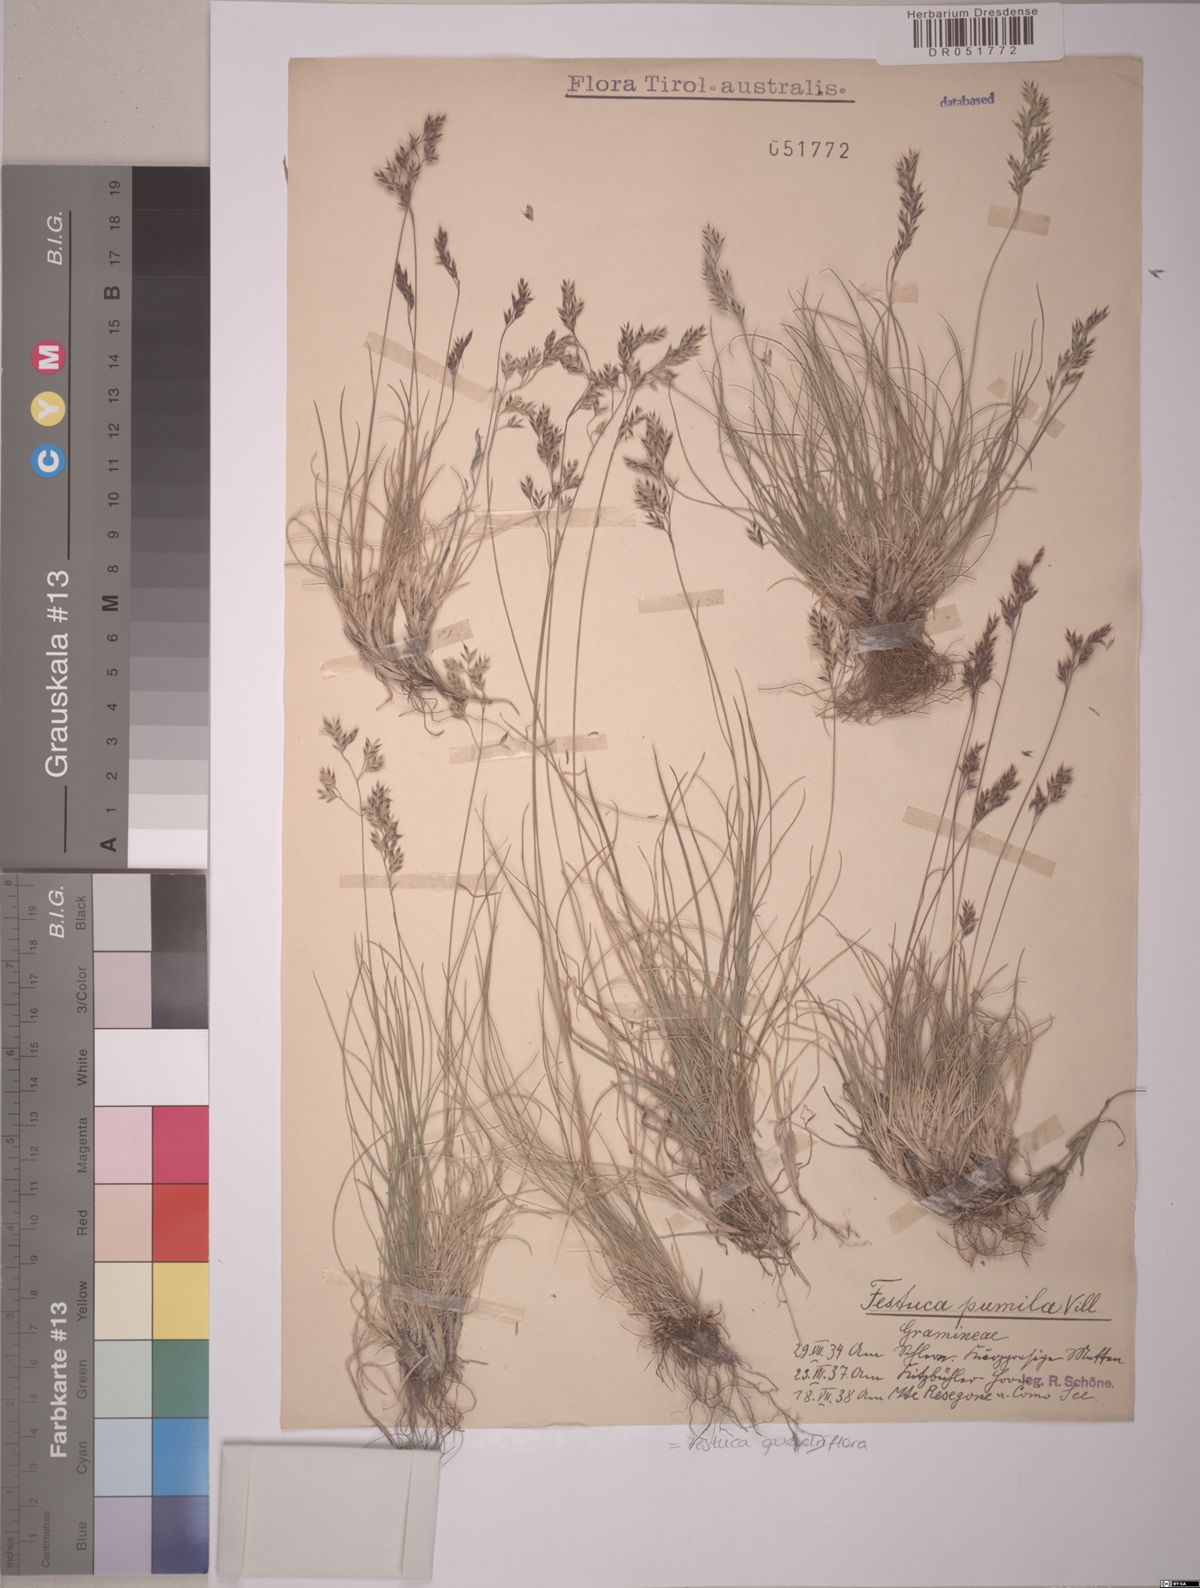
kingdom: Plantae
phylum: Tracheophyta
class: Liliopsida
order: Poales
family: Poaceae
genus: Festuca
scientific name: Festuca quadriflora
